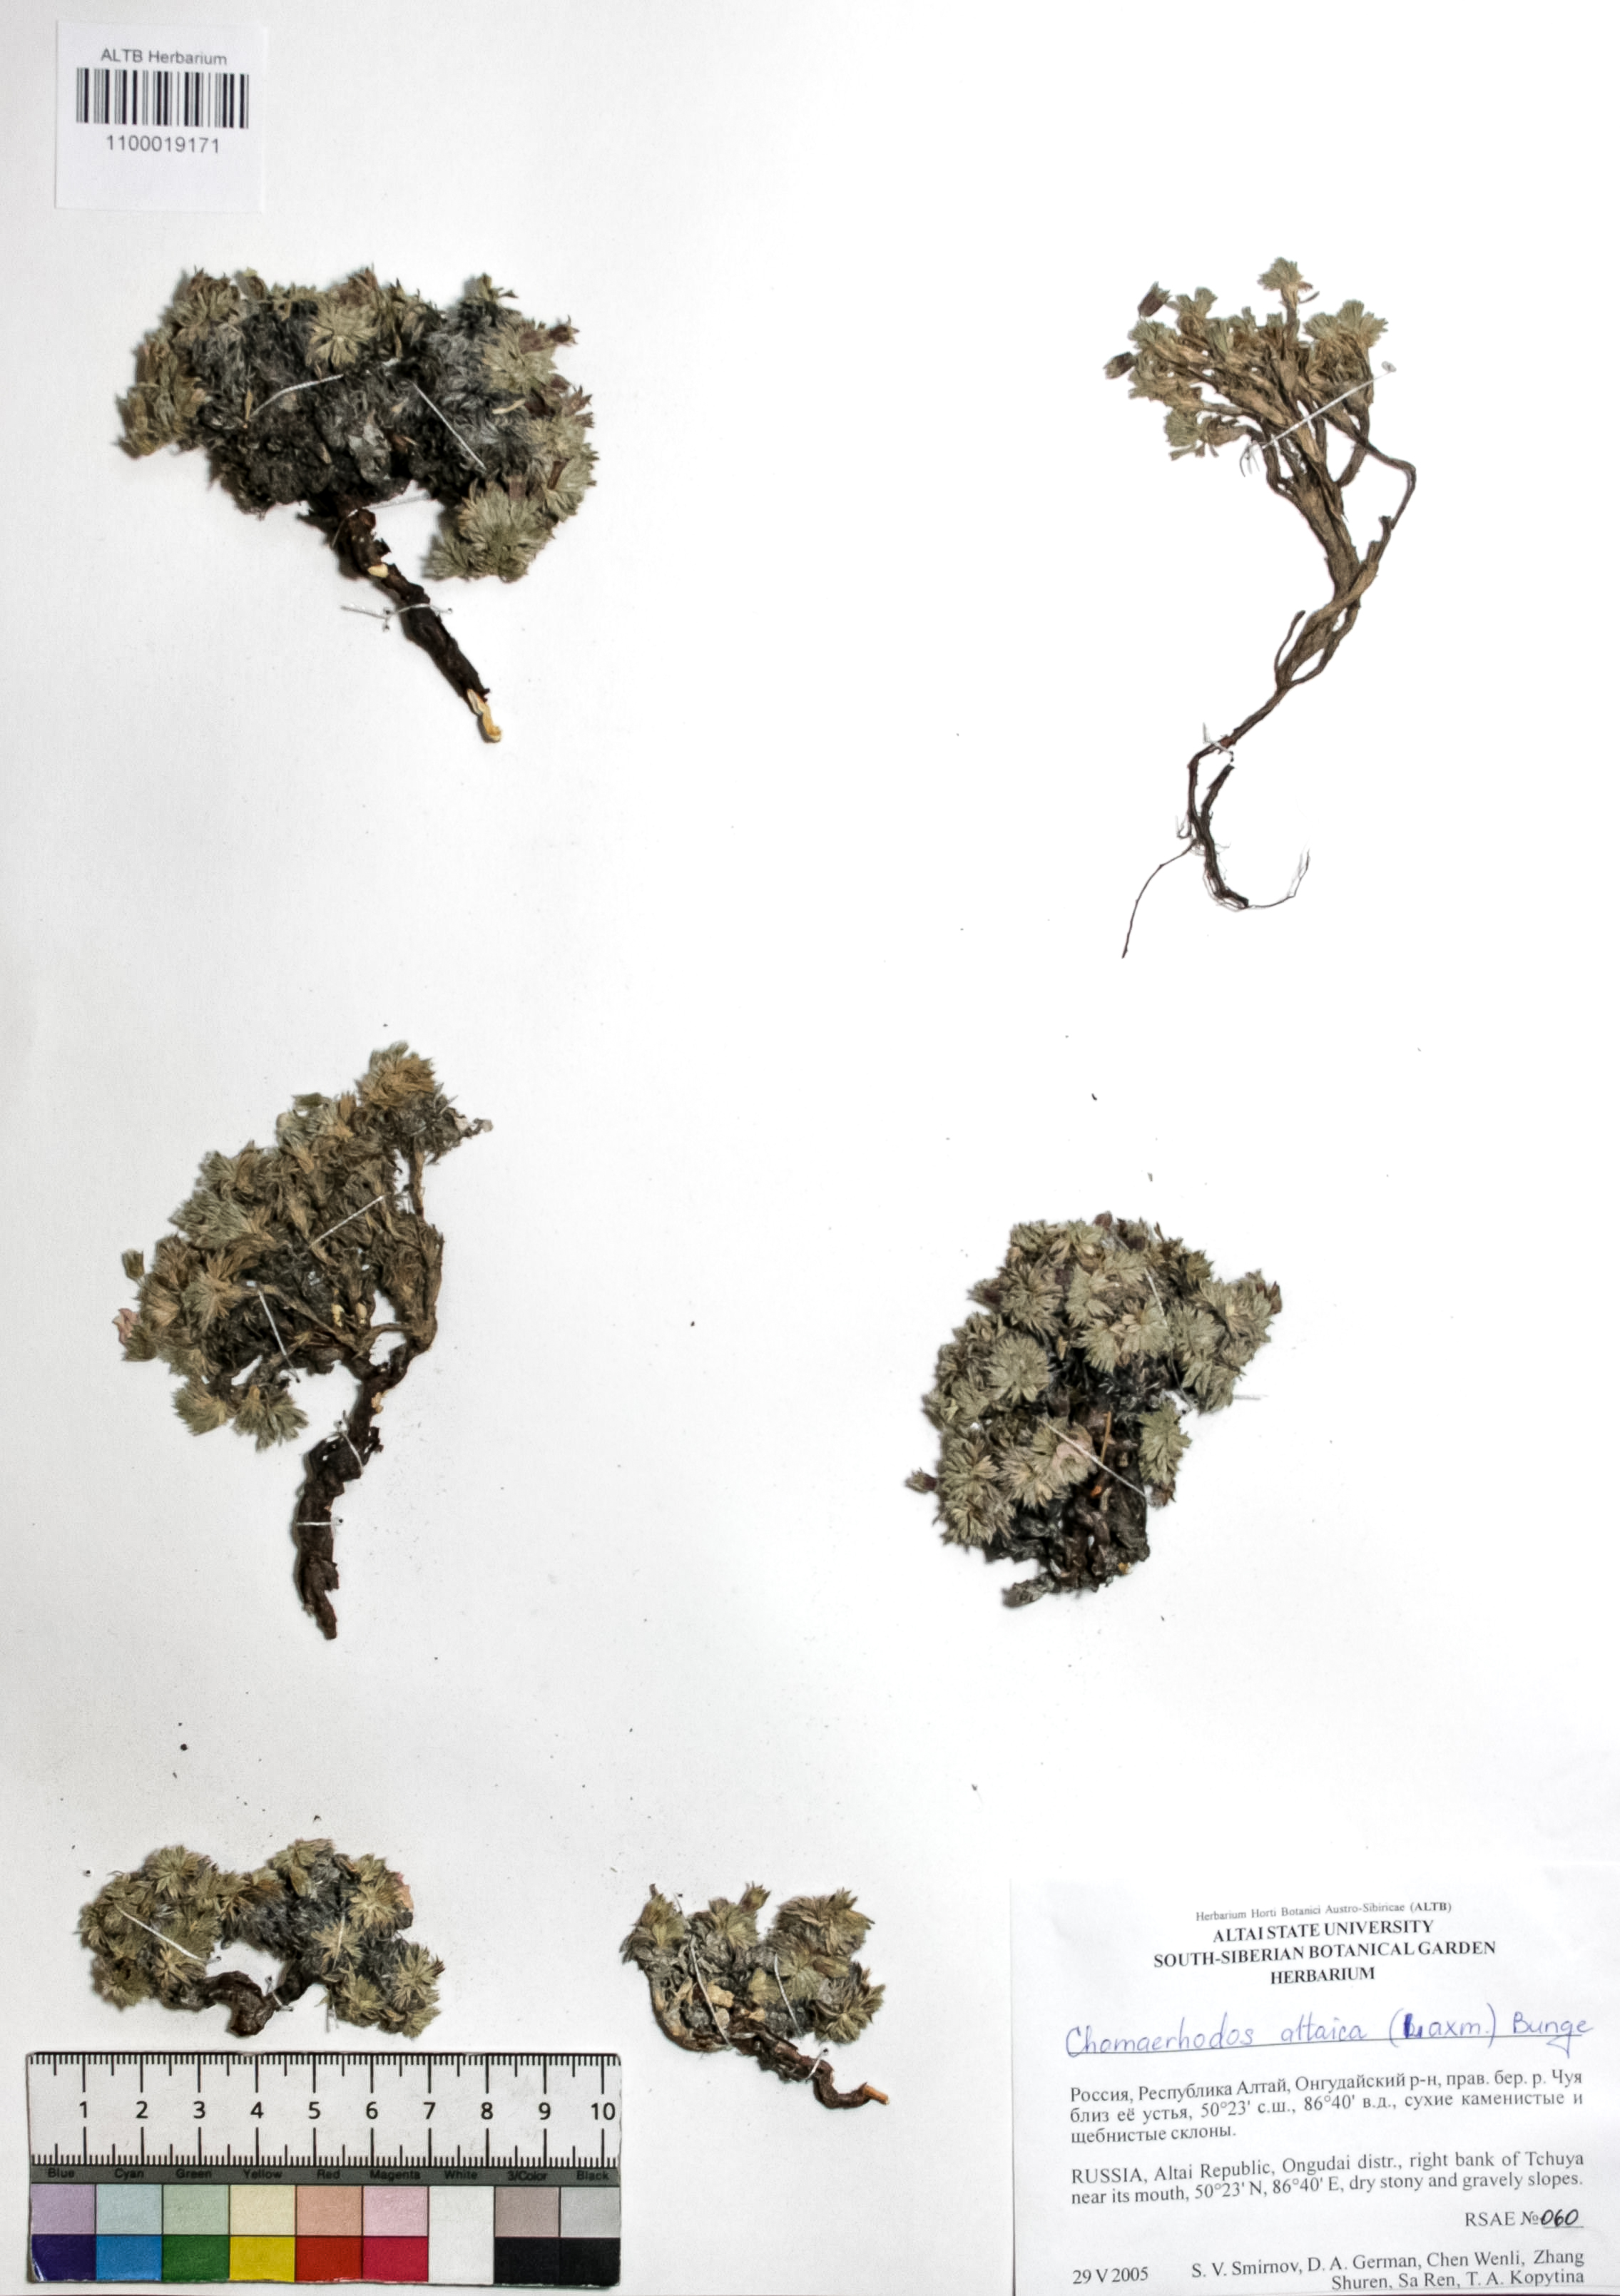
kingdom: Plantae
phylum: Tracheophyta
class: Magnoliopsida
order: Rosales
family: Rosaceae
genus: Chamaerhodos
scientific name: Chamaerhodos altaica
